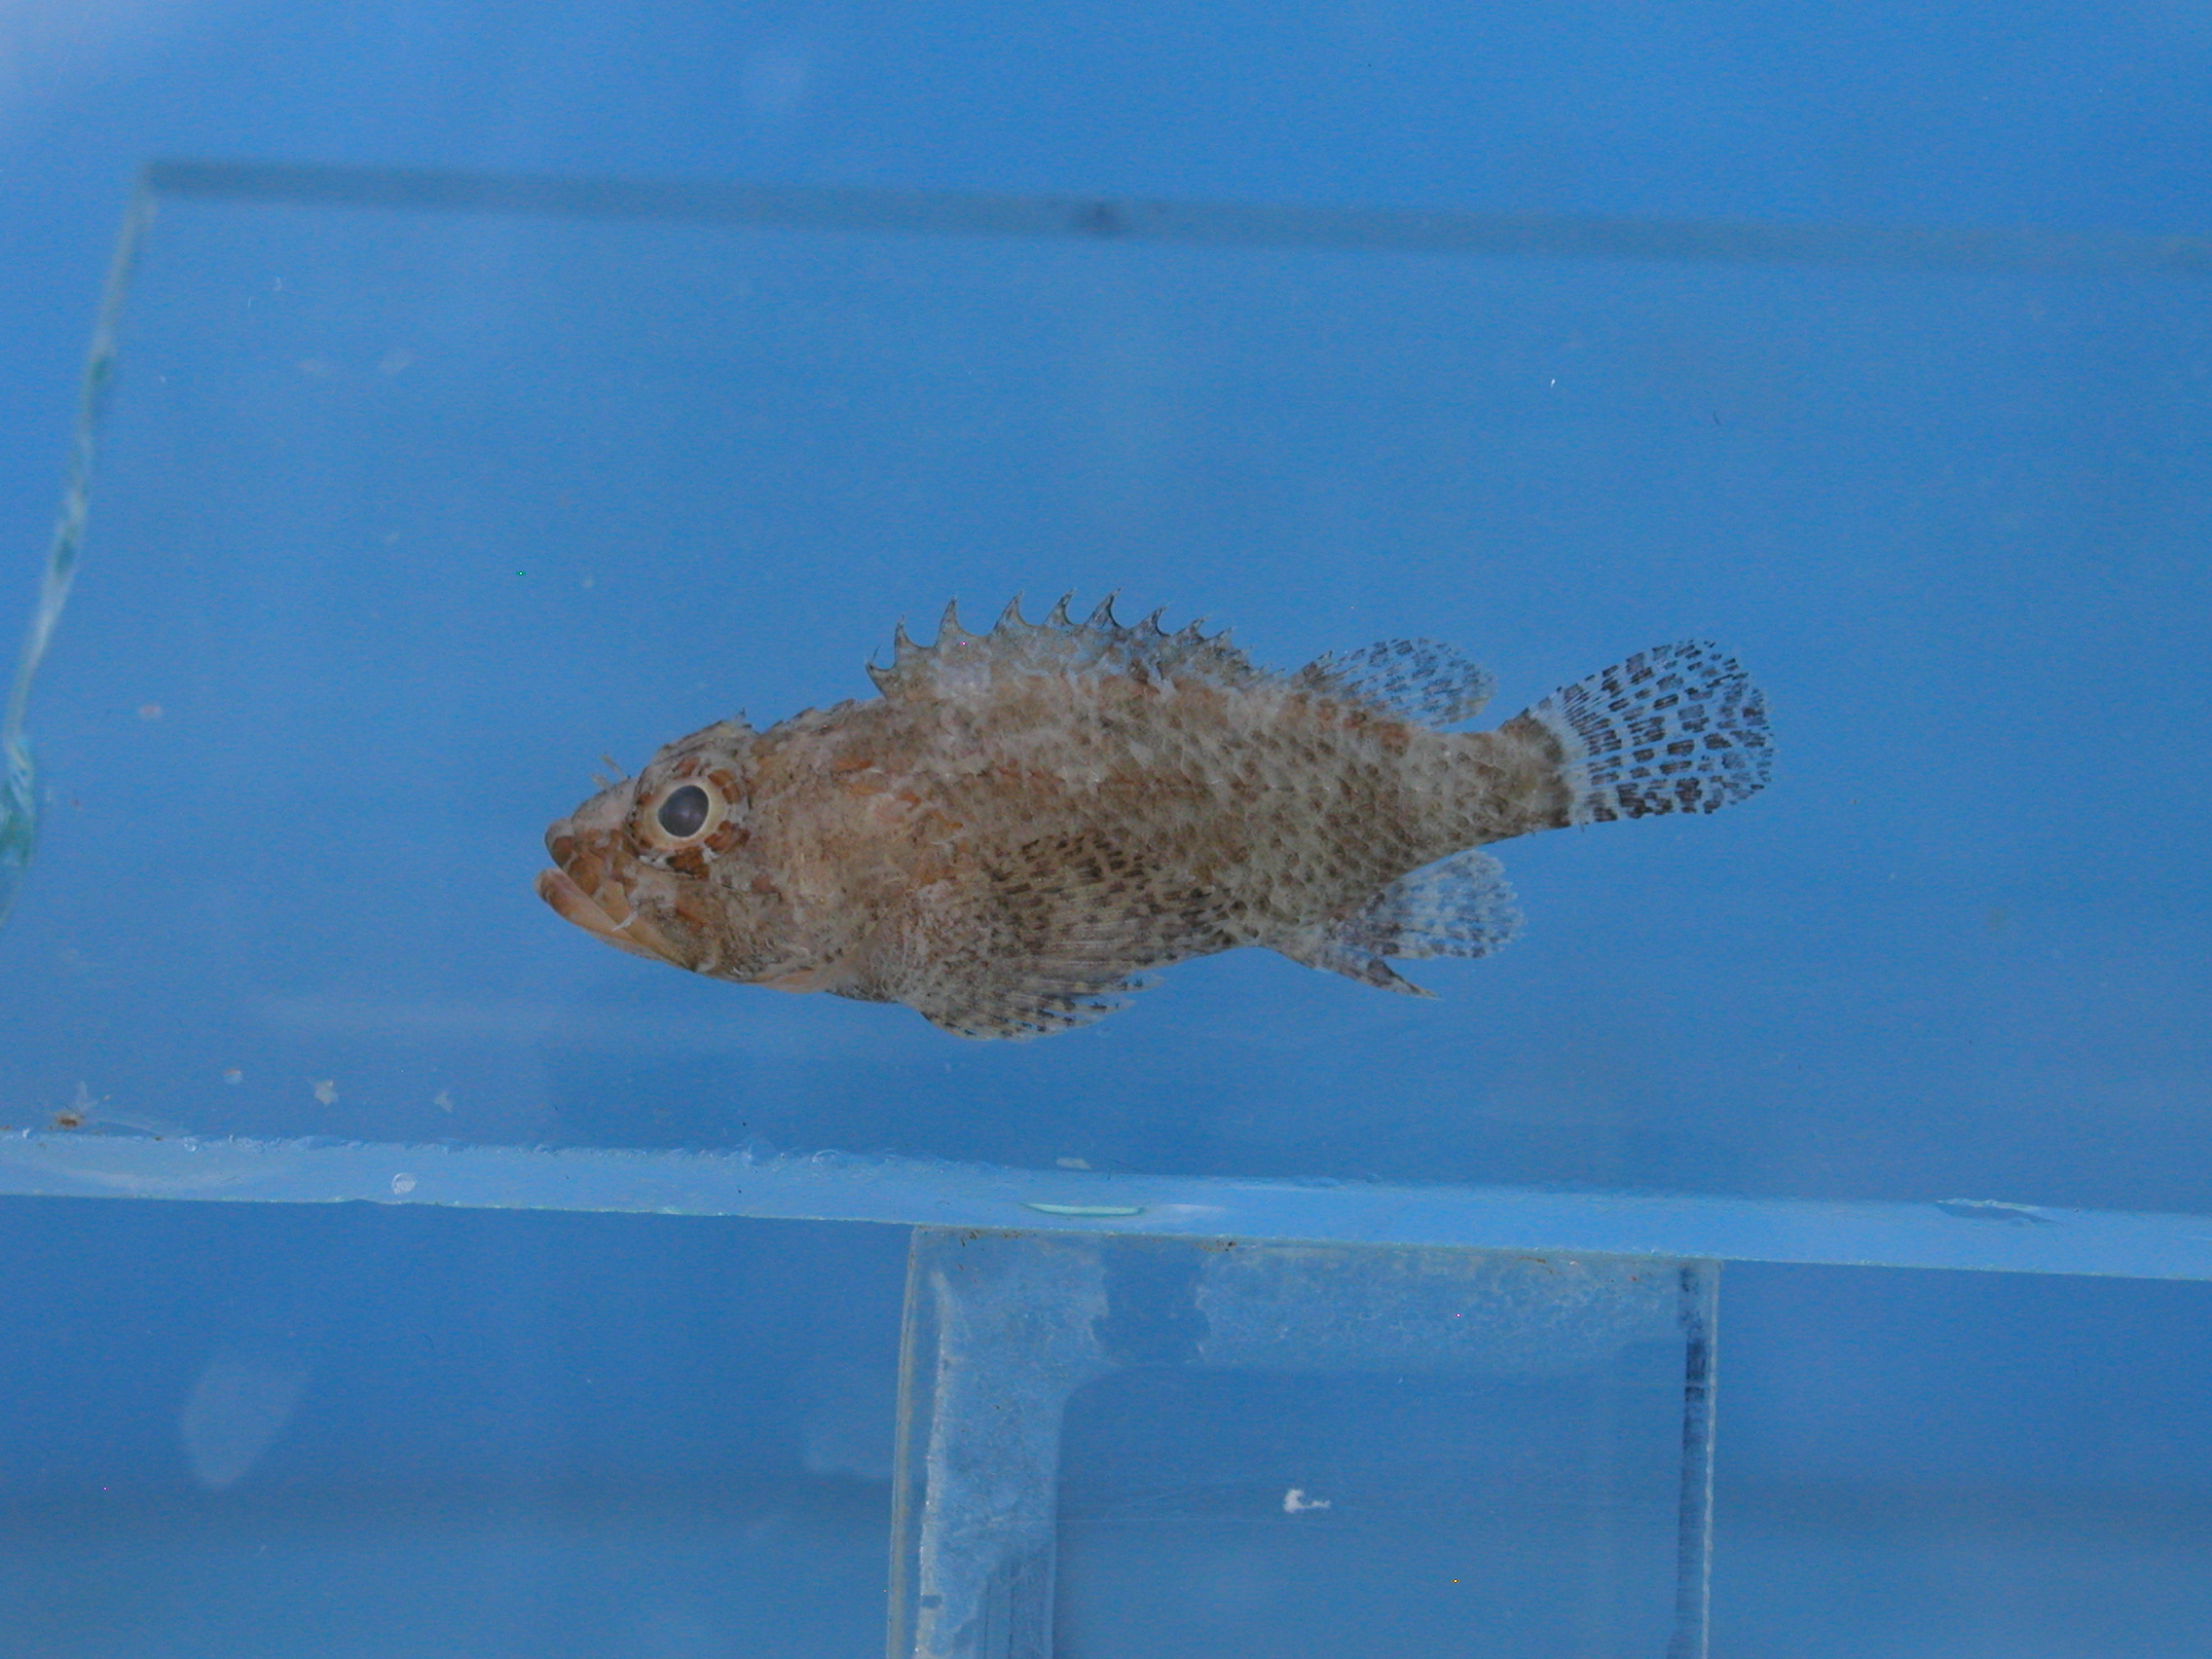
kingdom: Animalia
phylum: Chordata
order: Scorpaeniformes
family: Scorpaenidae
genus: Scorpaenodes
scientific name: Scorpaenodes kelloggi
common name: Dwarf scorpionfish
